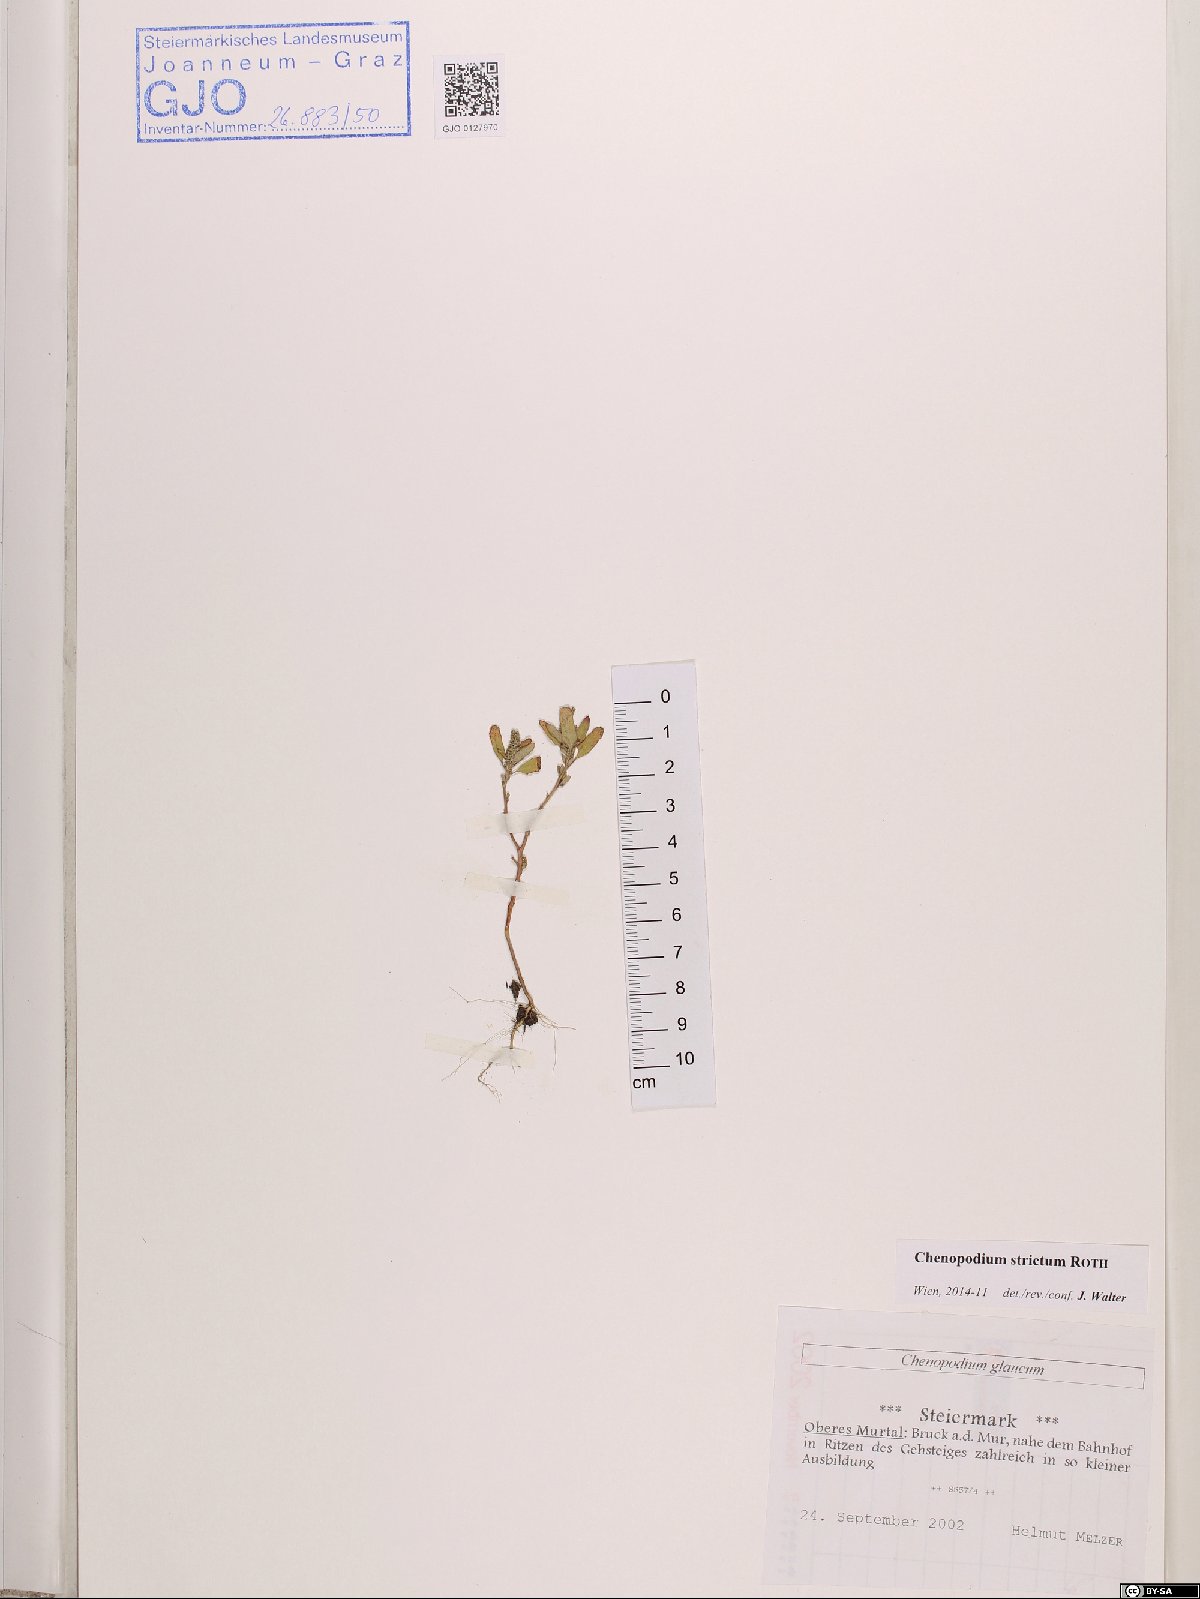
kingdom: Plantae
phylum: Tracheophyta
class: Magnoliopsida
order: Caryophyllales
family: Amaranthaceae
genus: Chenopodium
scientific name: Chenopodium album
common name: Fat-hen
